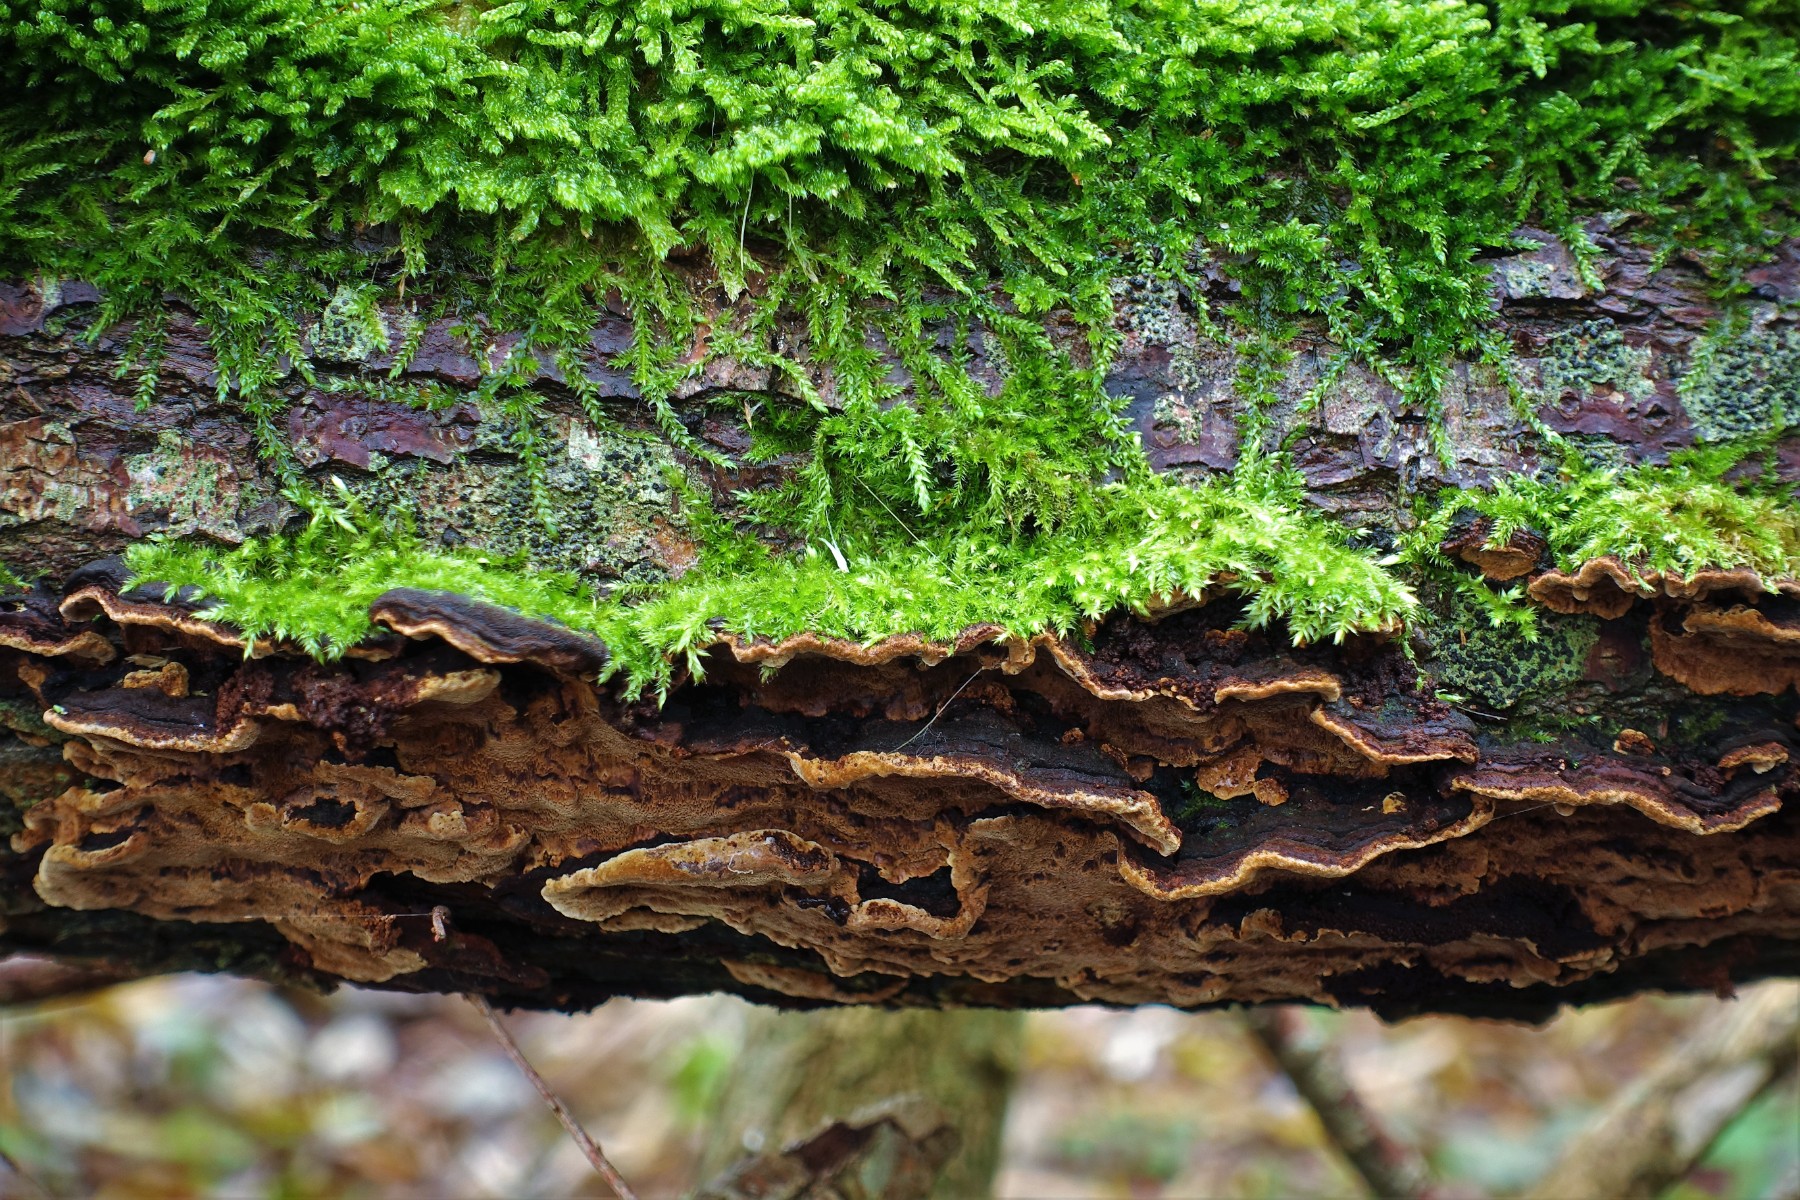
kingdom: Fungi
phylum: Basidiomycota
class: Agaricomycetes
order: Hymenochaetales
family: Hymenochaetaceae
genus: Phellinopsis
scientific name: Phellinopsis conchata
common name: pile-ildporesvamp
